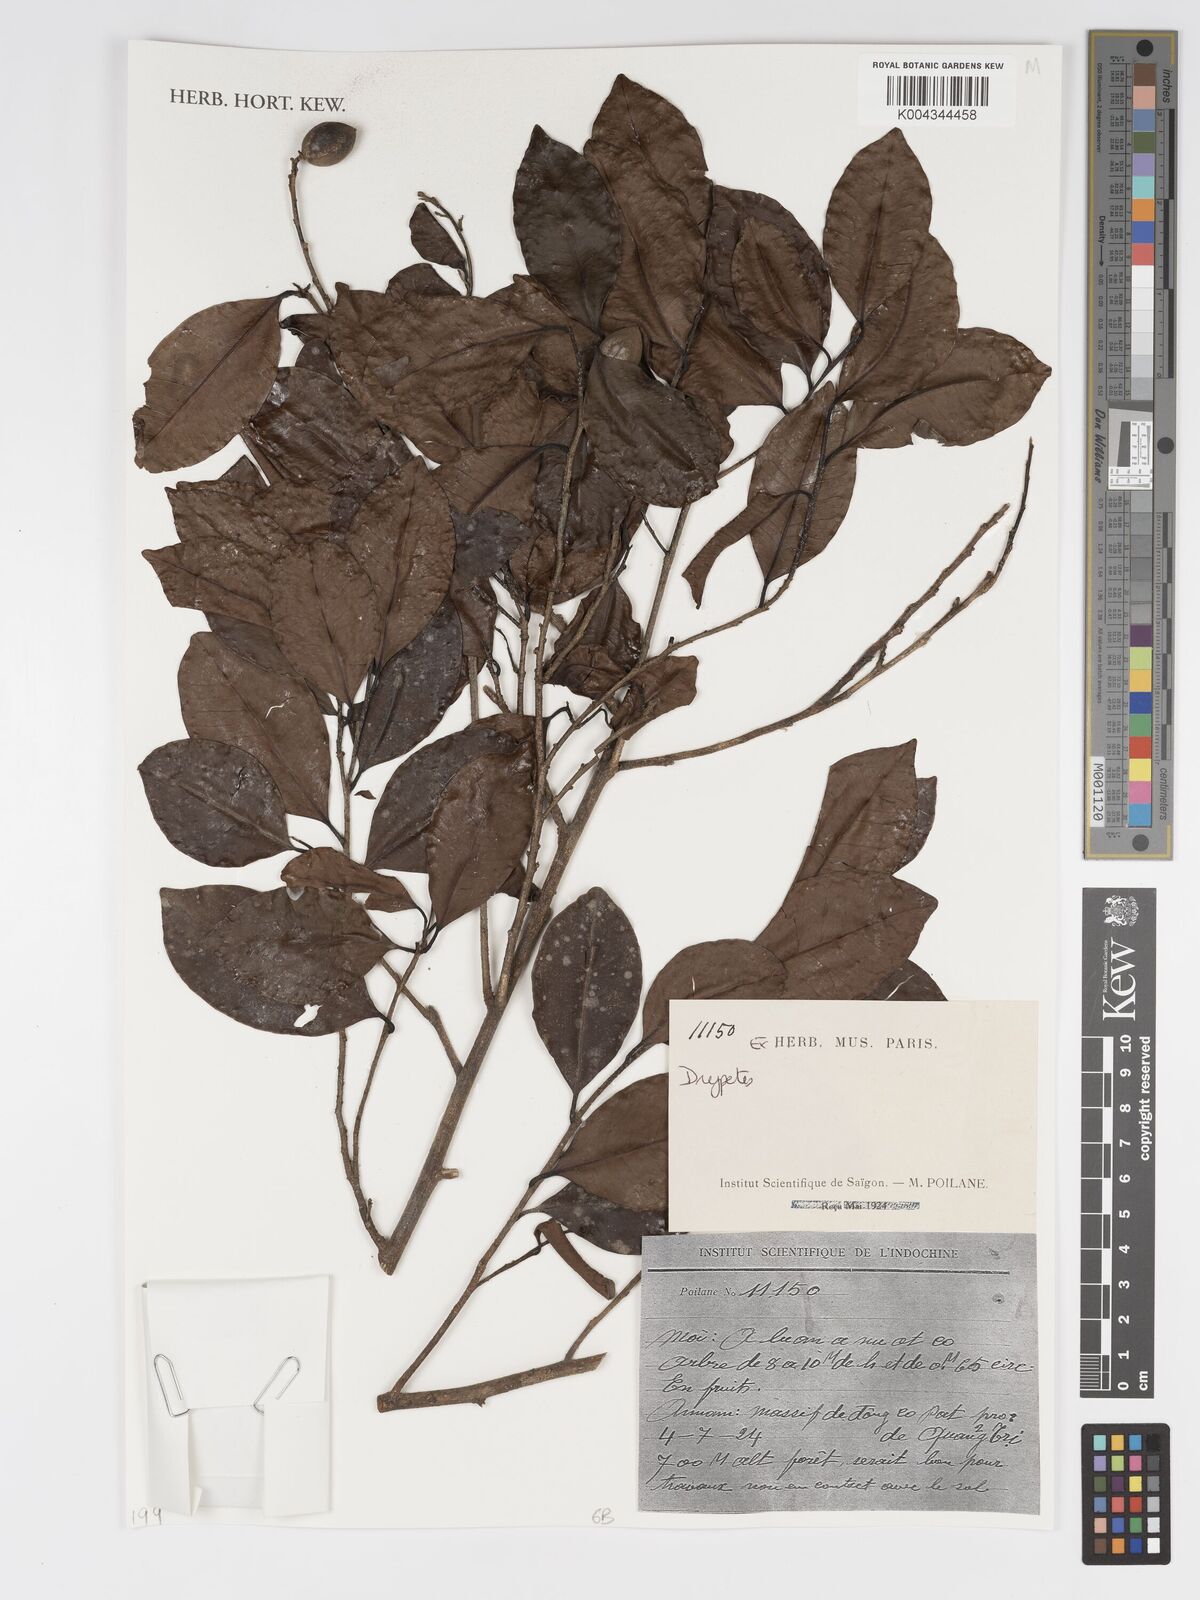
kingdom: Plantae
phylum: Tracheophyta
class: Magnoliopsida
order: Malpighiales
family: Putranjivaceae
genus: Drypetes
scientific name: Drypetes
